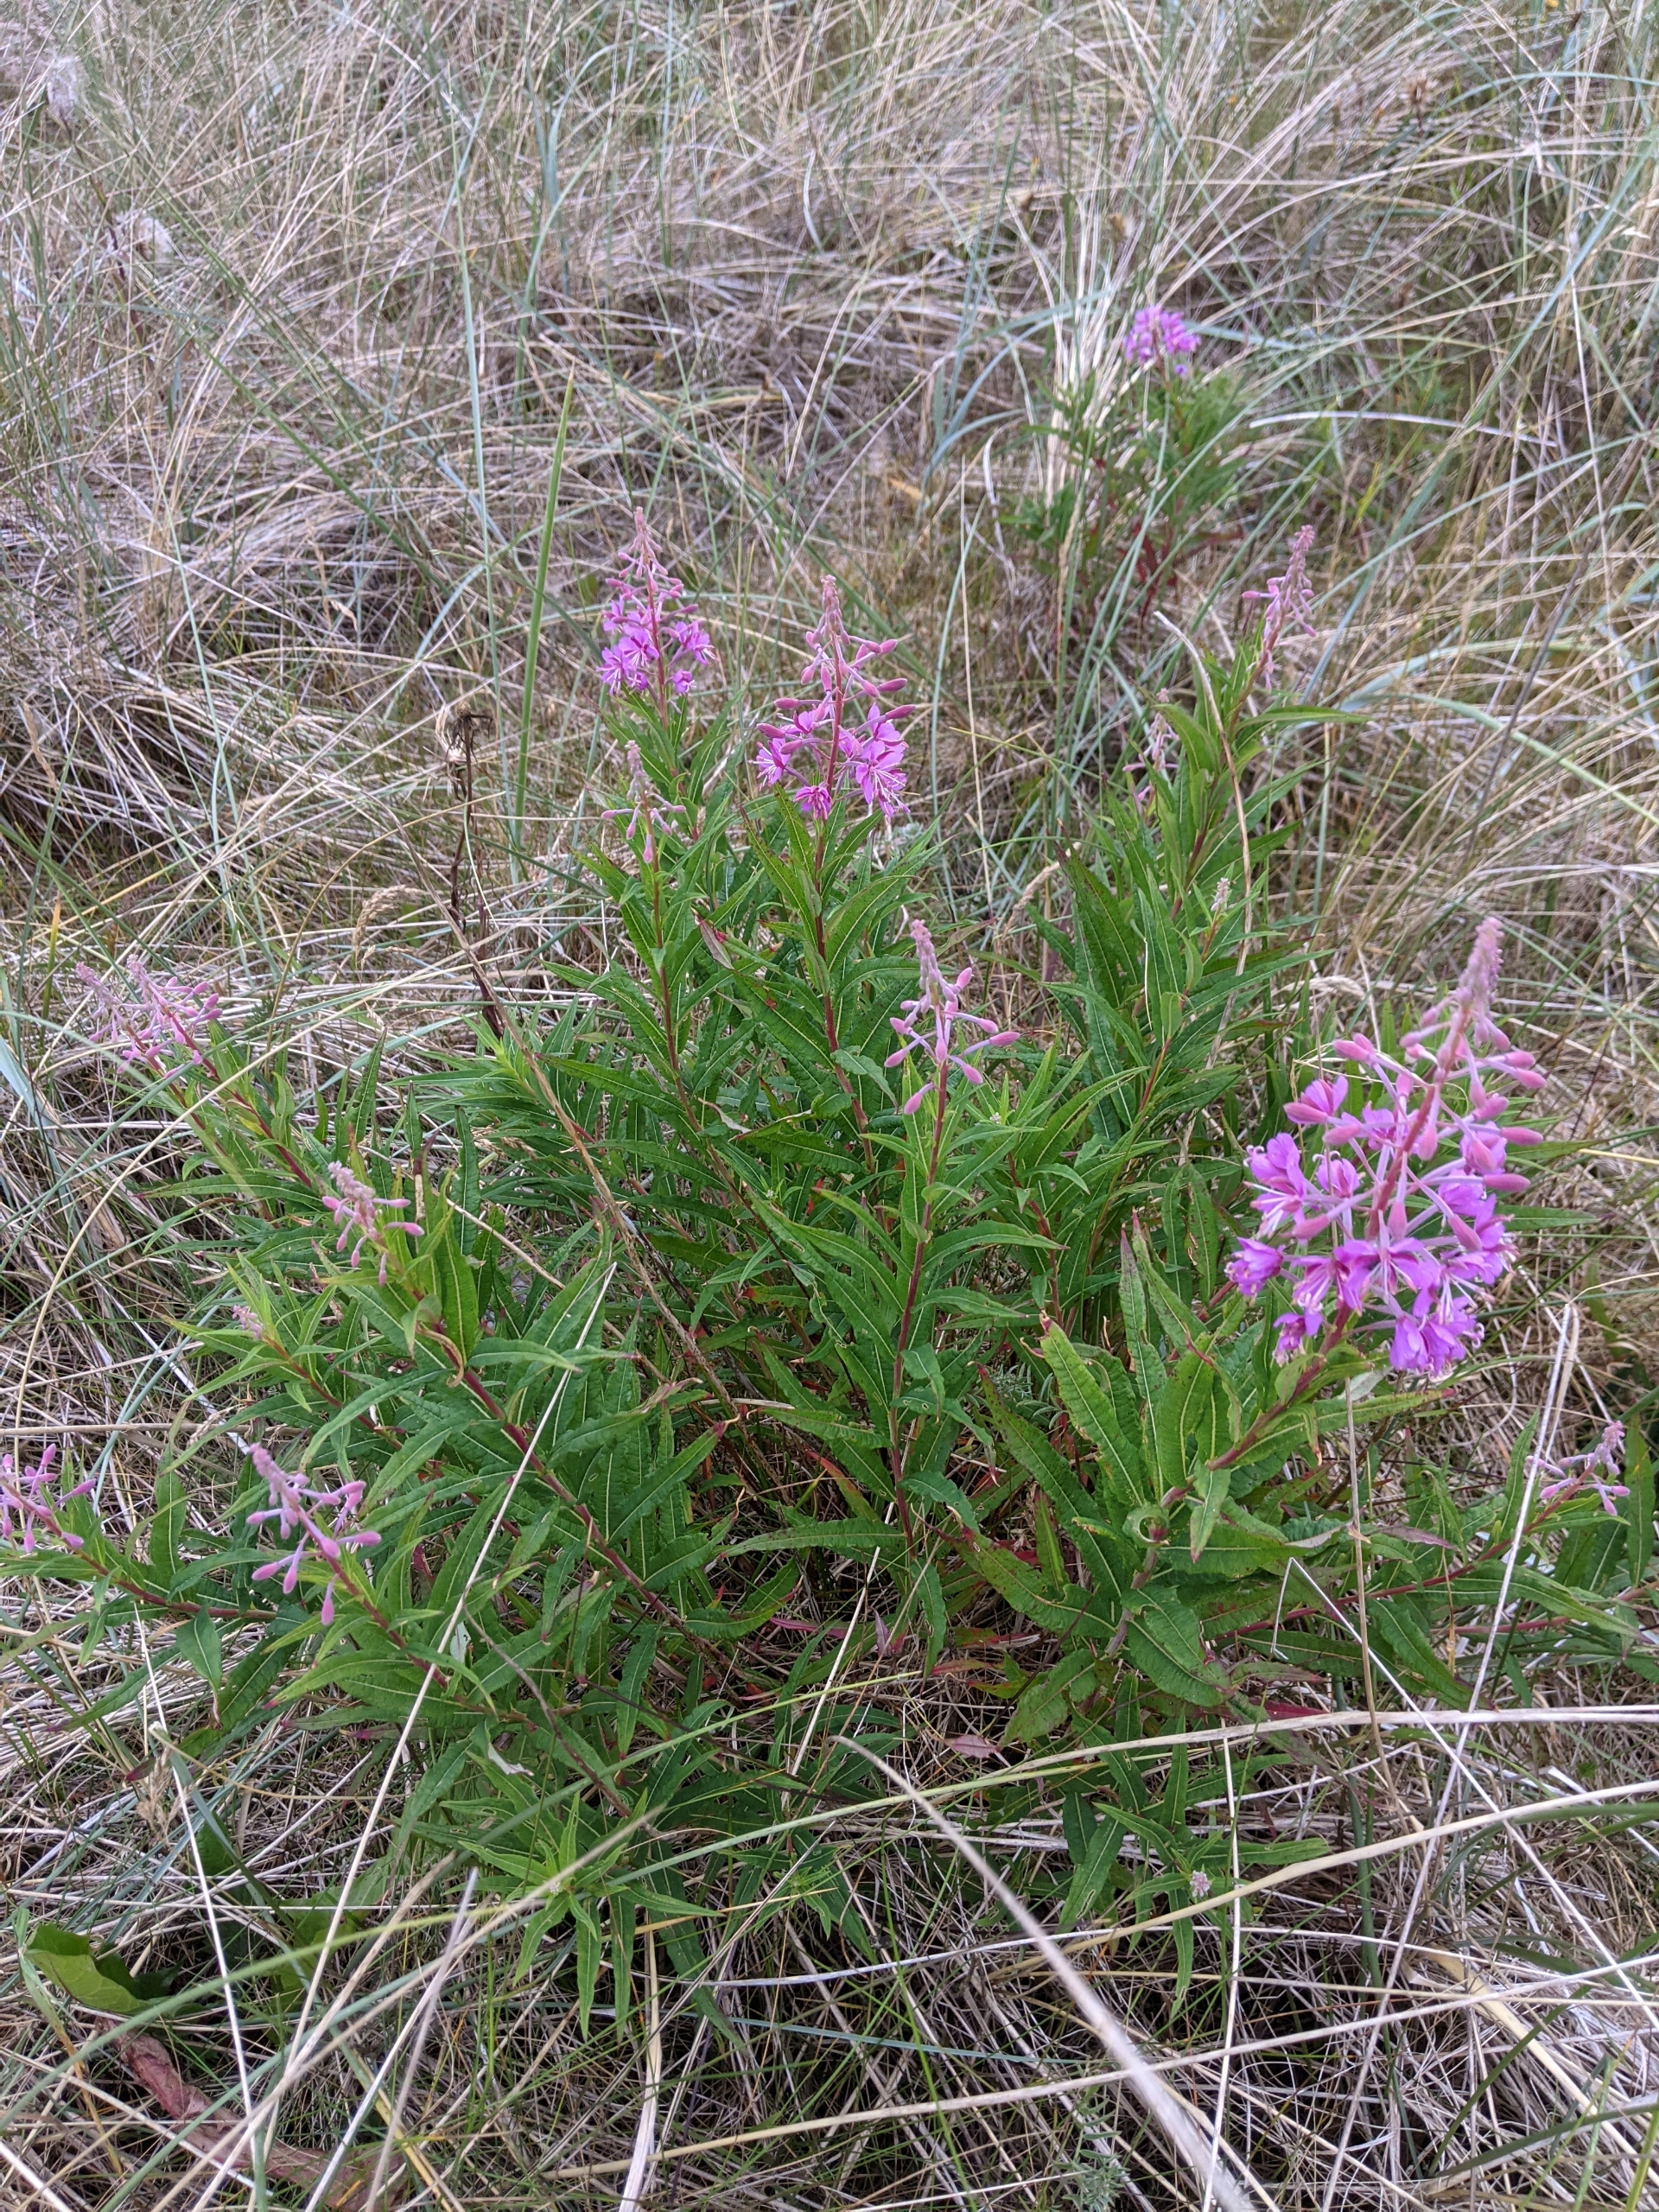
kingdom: Plantae
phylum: Tracheophyta
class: Magnoliopsida
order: Myrtales
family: Onagraceae
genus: Chamaenerion
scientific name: Chamaenerion angustifolium
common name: Gederams
